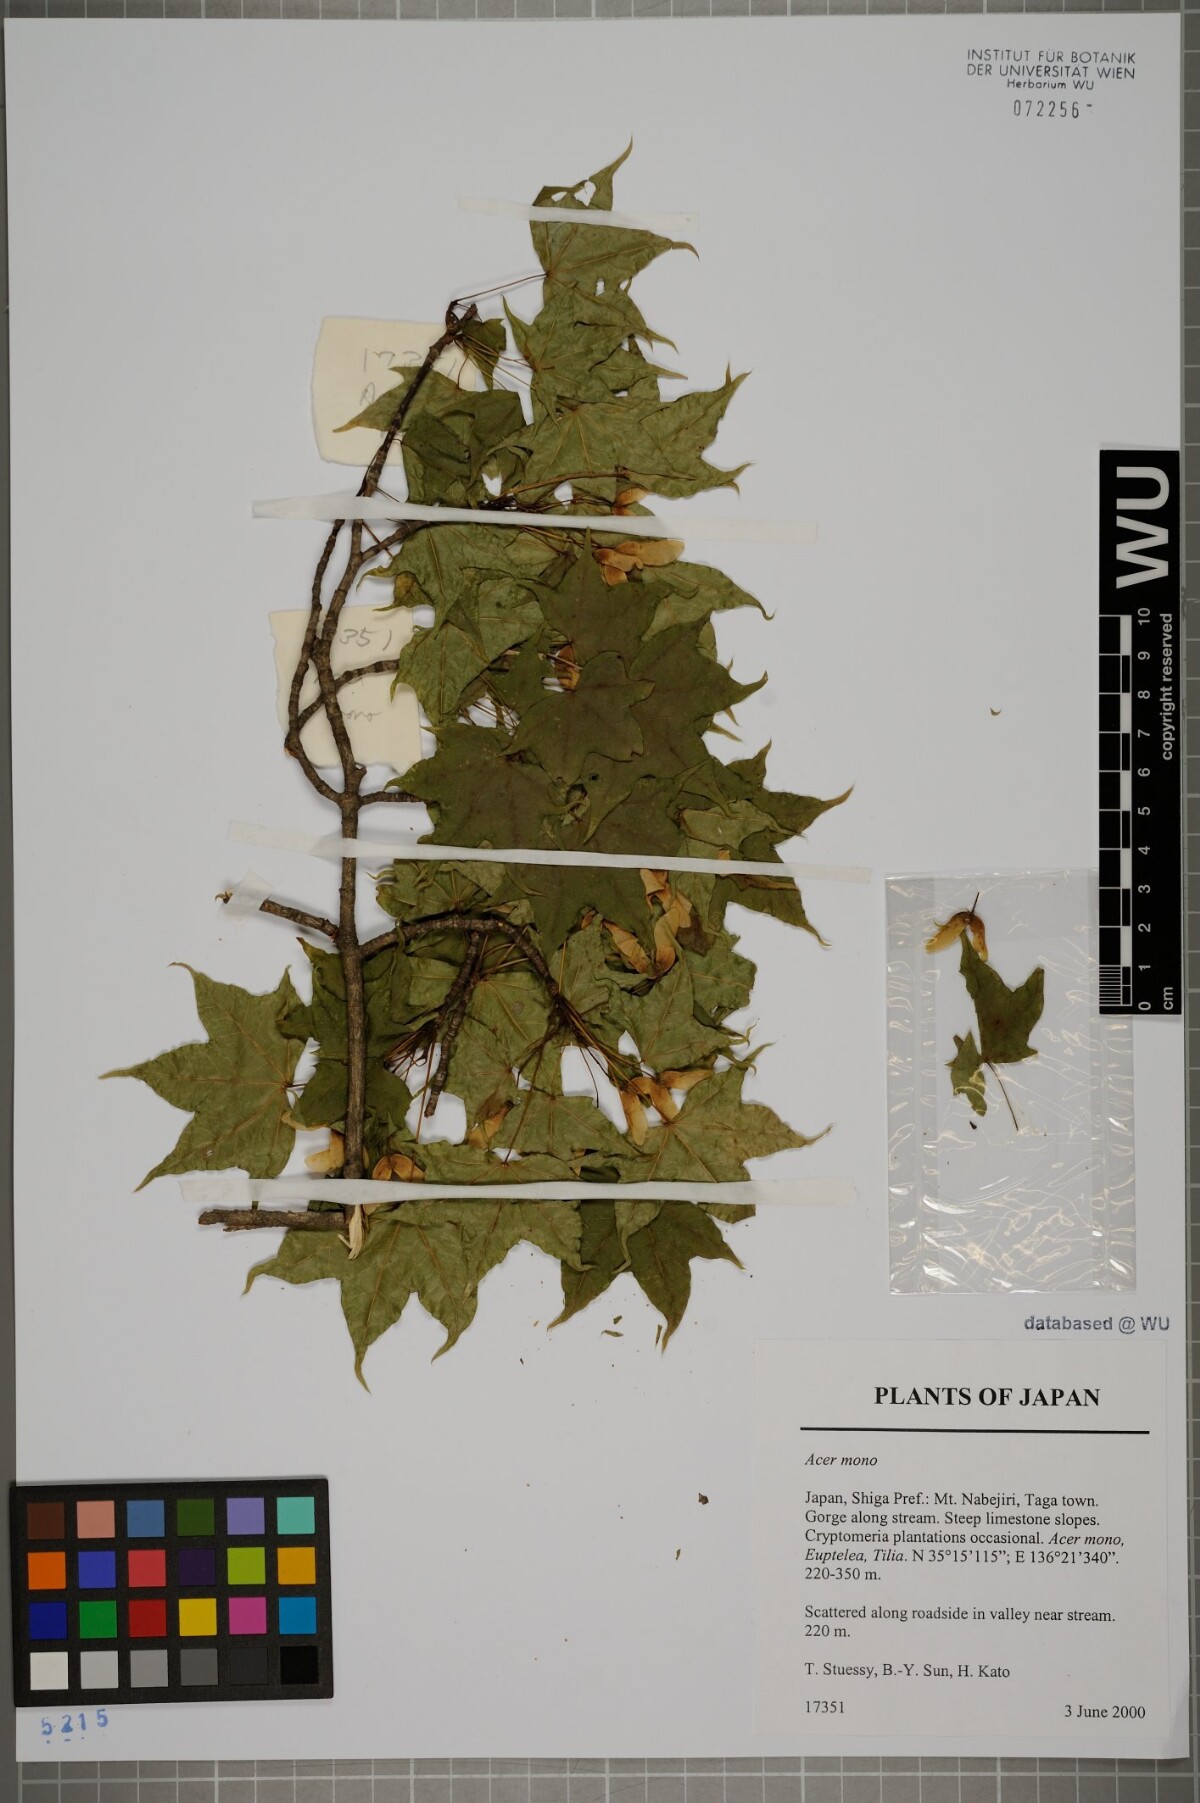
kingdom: Plantae
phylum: Tracheophyta
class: Magnoliopsida
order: Sapindales
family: Sapindaceae
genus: Acer
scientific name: Acer pictum
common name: The painted maple
